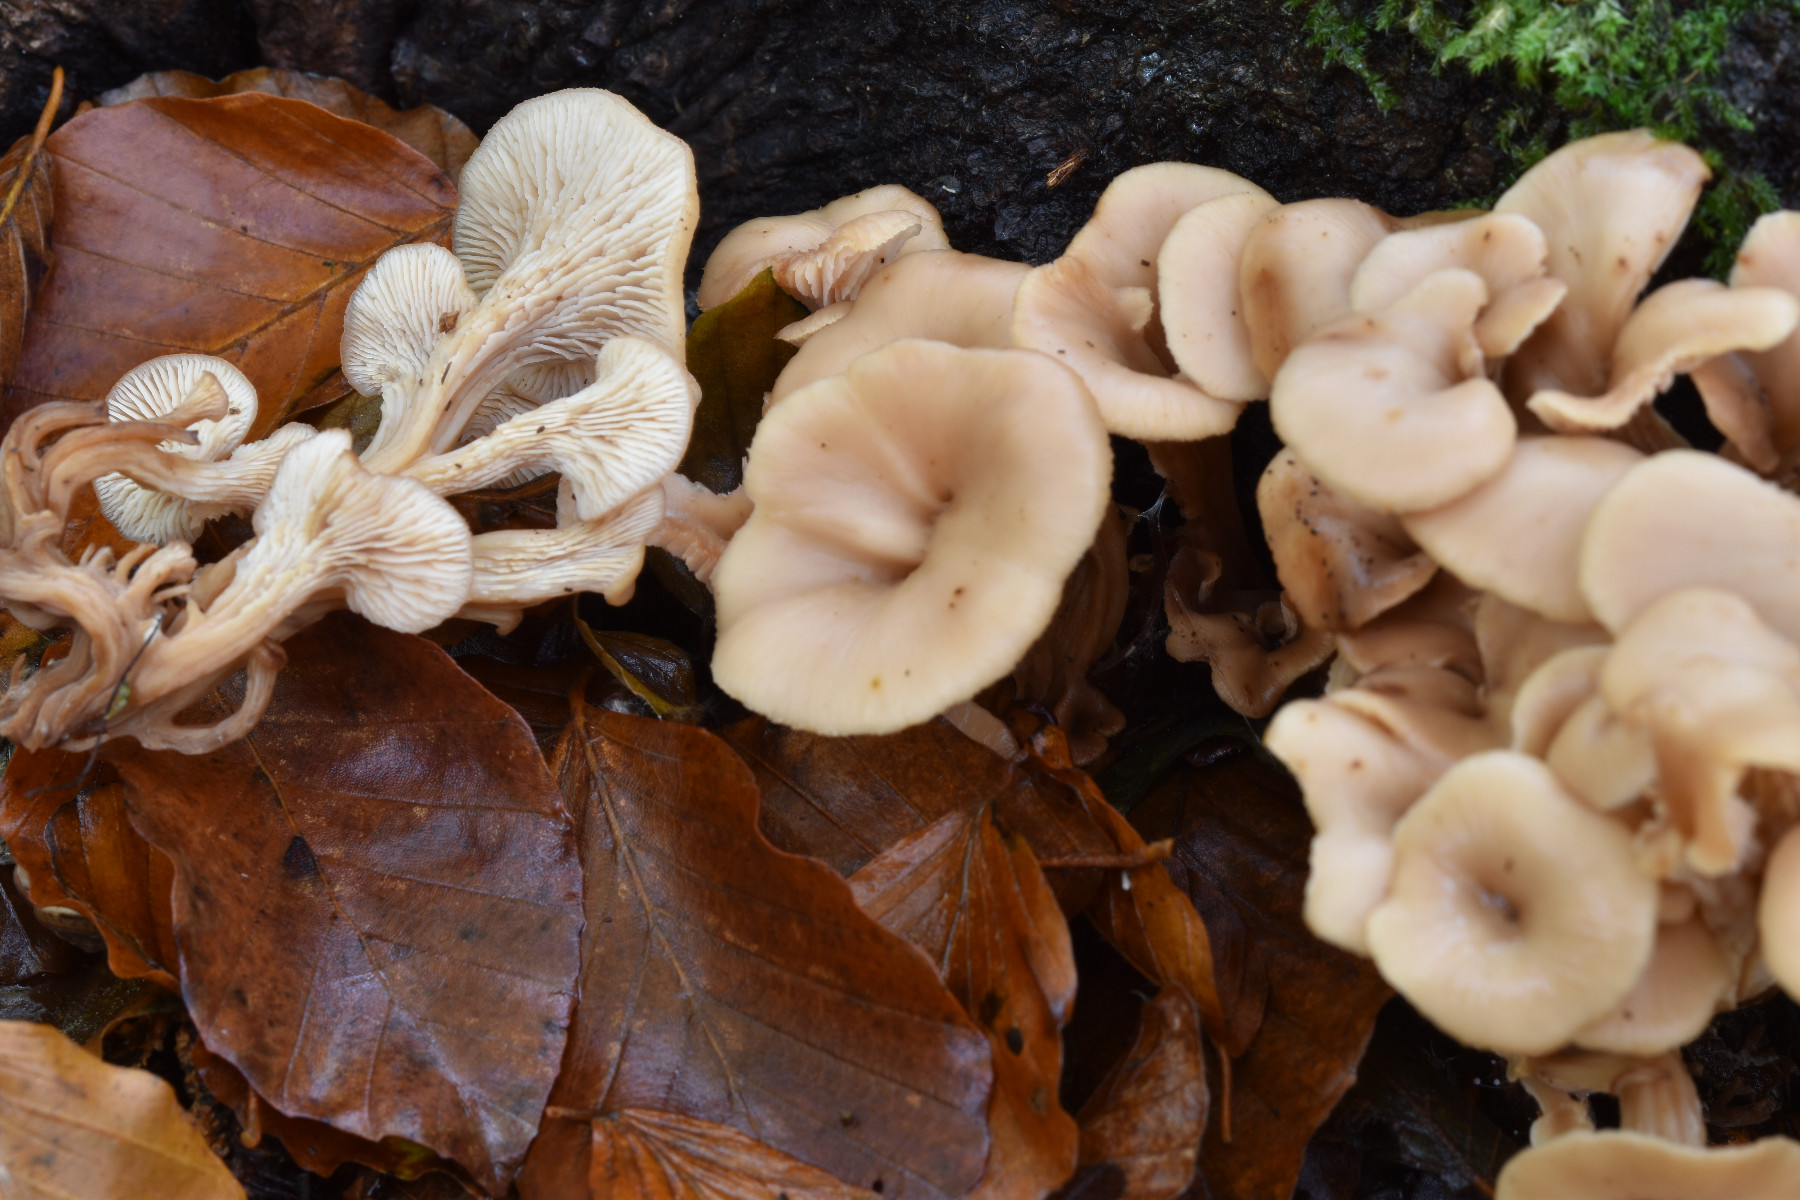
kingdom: Fungi
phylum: Basidiomycota
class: Agaricomycetes
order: Russulales
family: Auriscalpiaceae
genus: Lentinellus
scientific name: Lentinellus cochleatus
